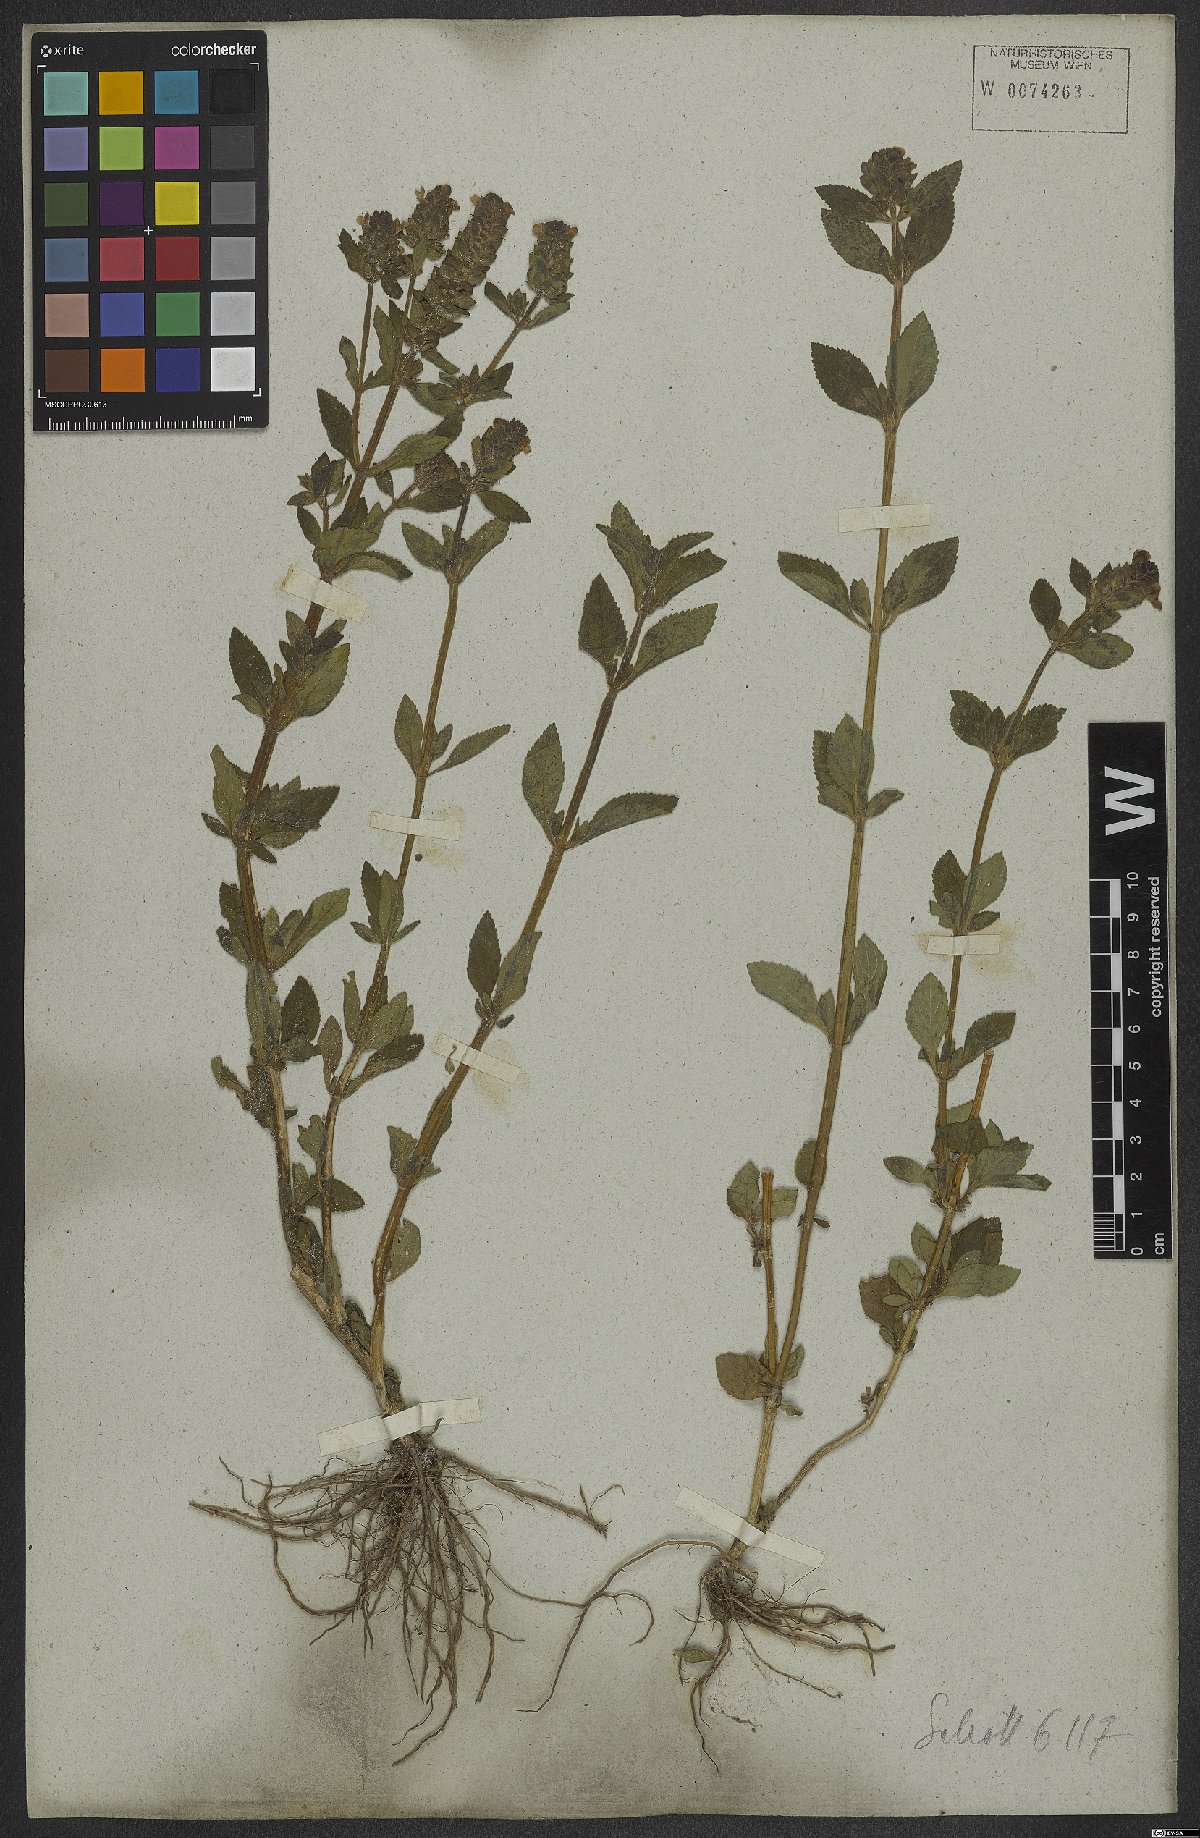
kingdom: Plantae
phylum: Tracheophyta
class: Magnoliopsida
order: Lamiales
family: Plantaginaceae
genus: Matourea
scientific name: Matourea
